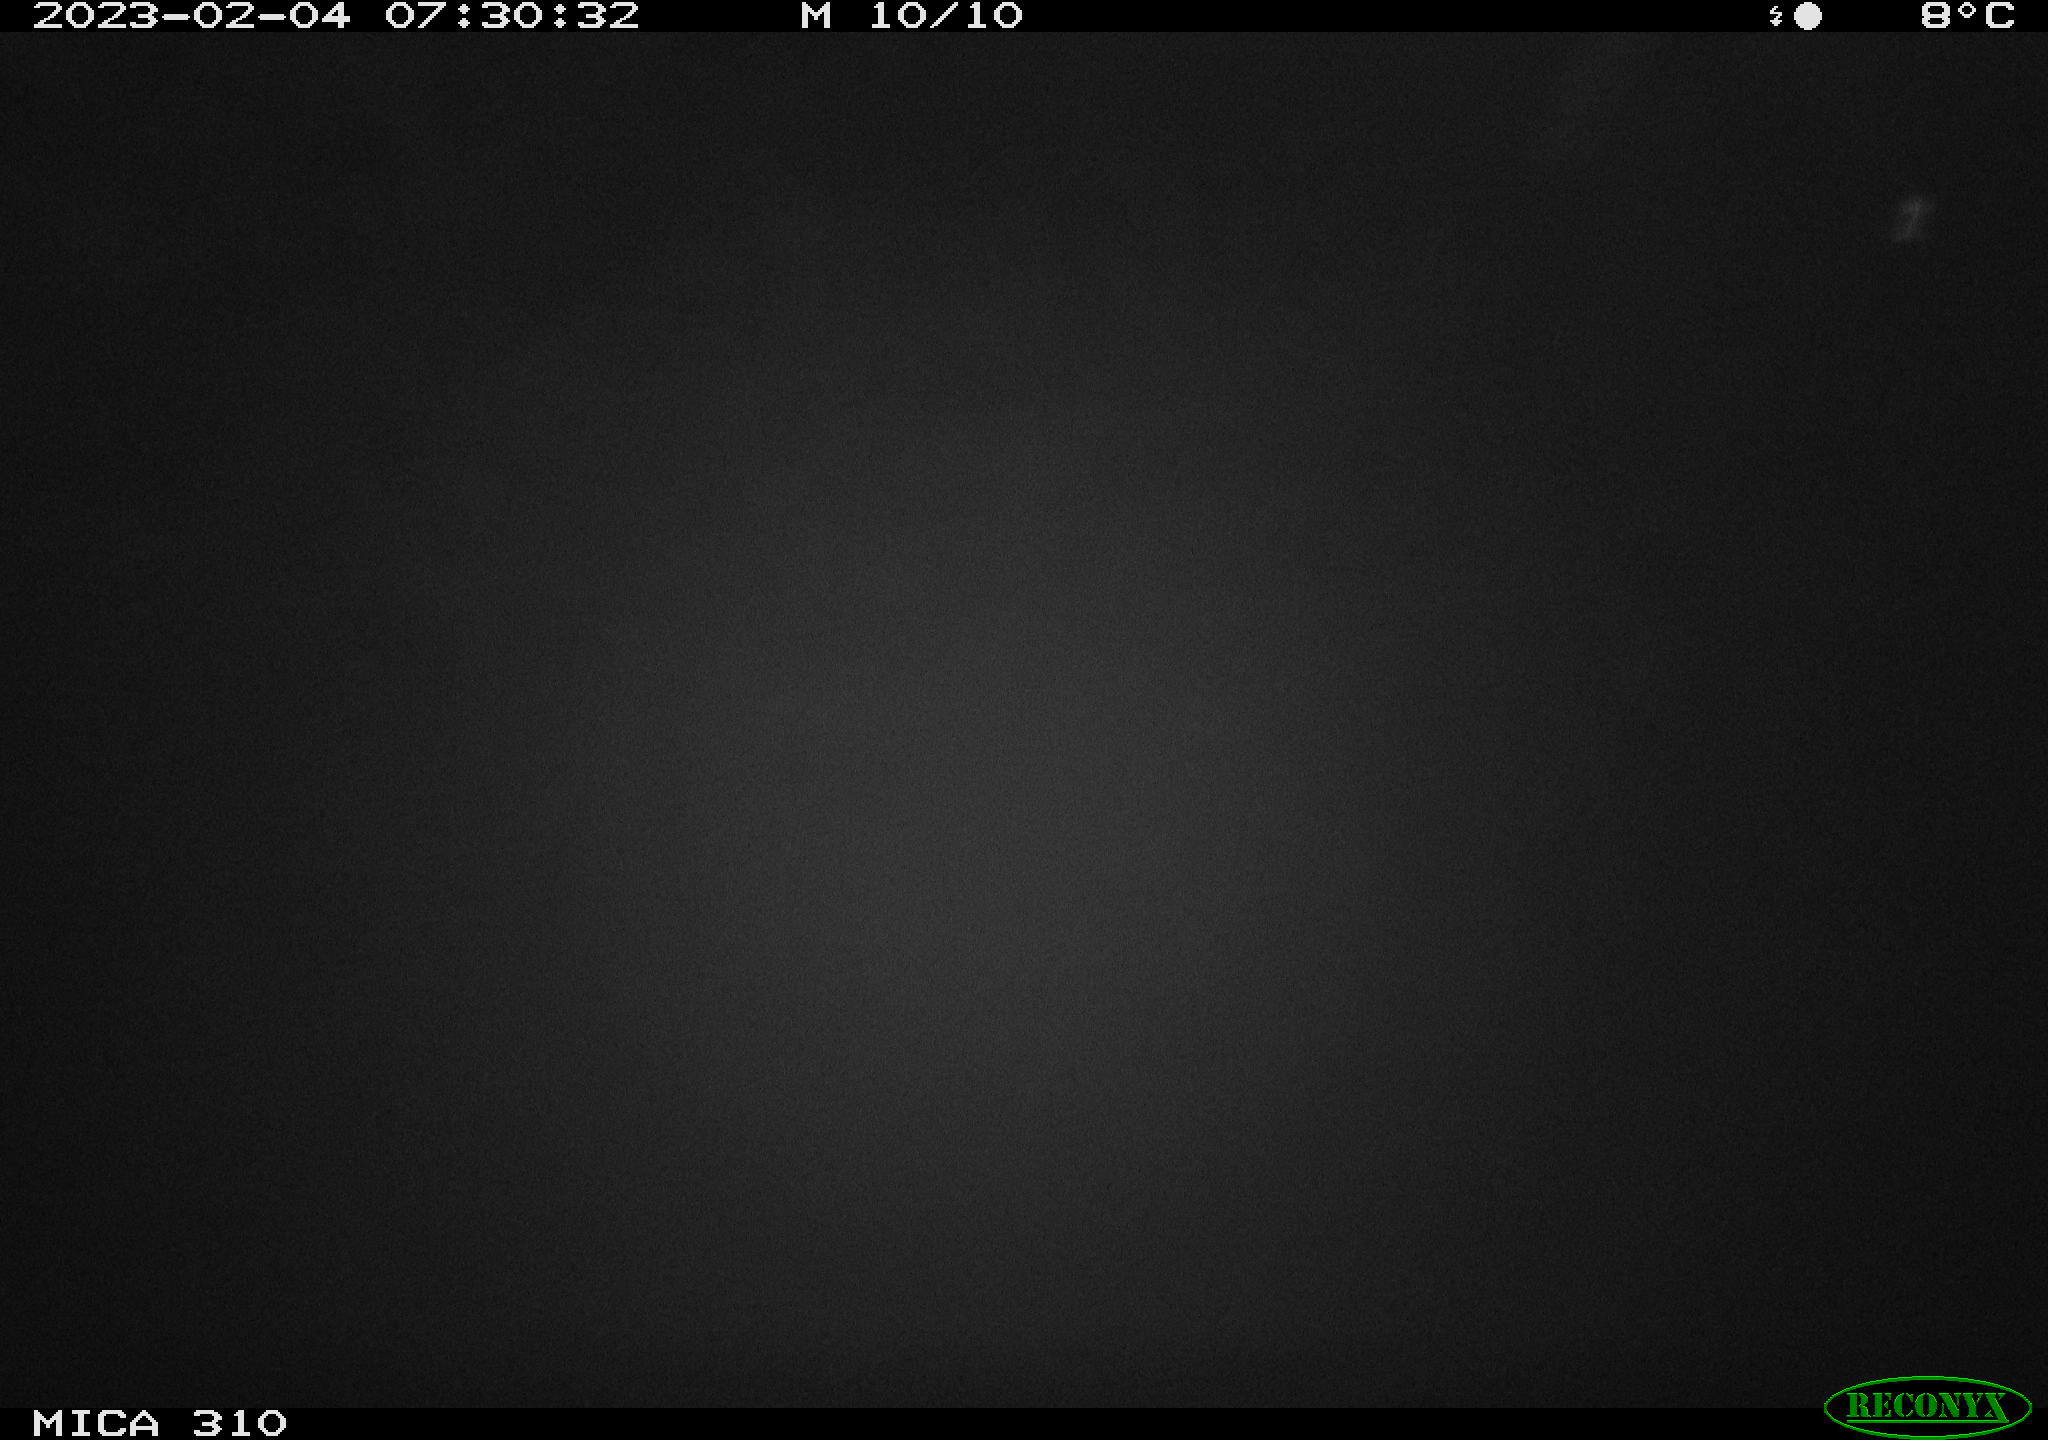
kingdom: Animalia
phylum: Chordata
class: Aves
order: Anseriformes
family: Anatidae
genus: Anas
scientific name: Anas
